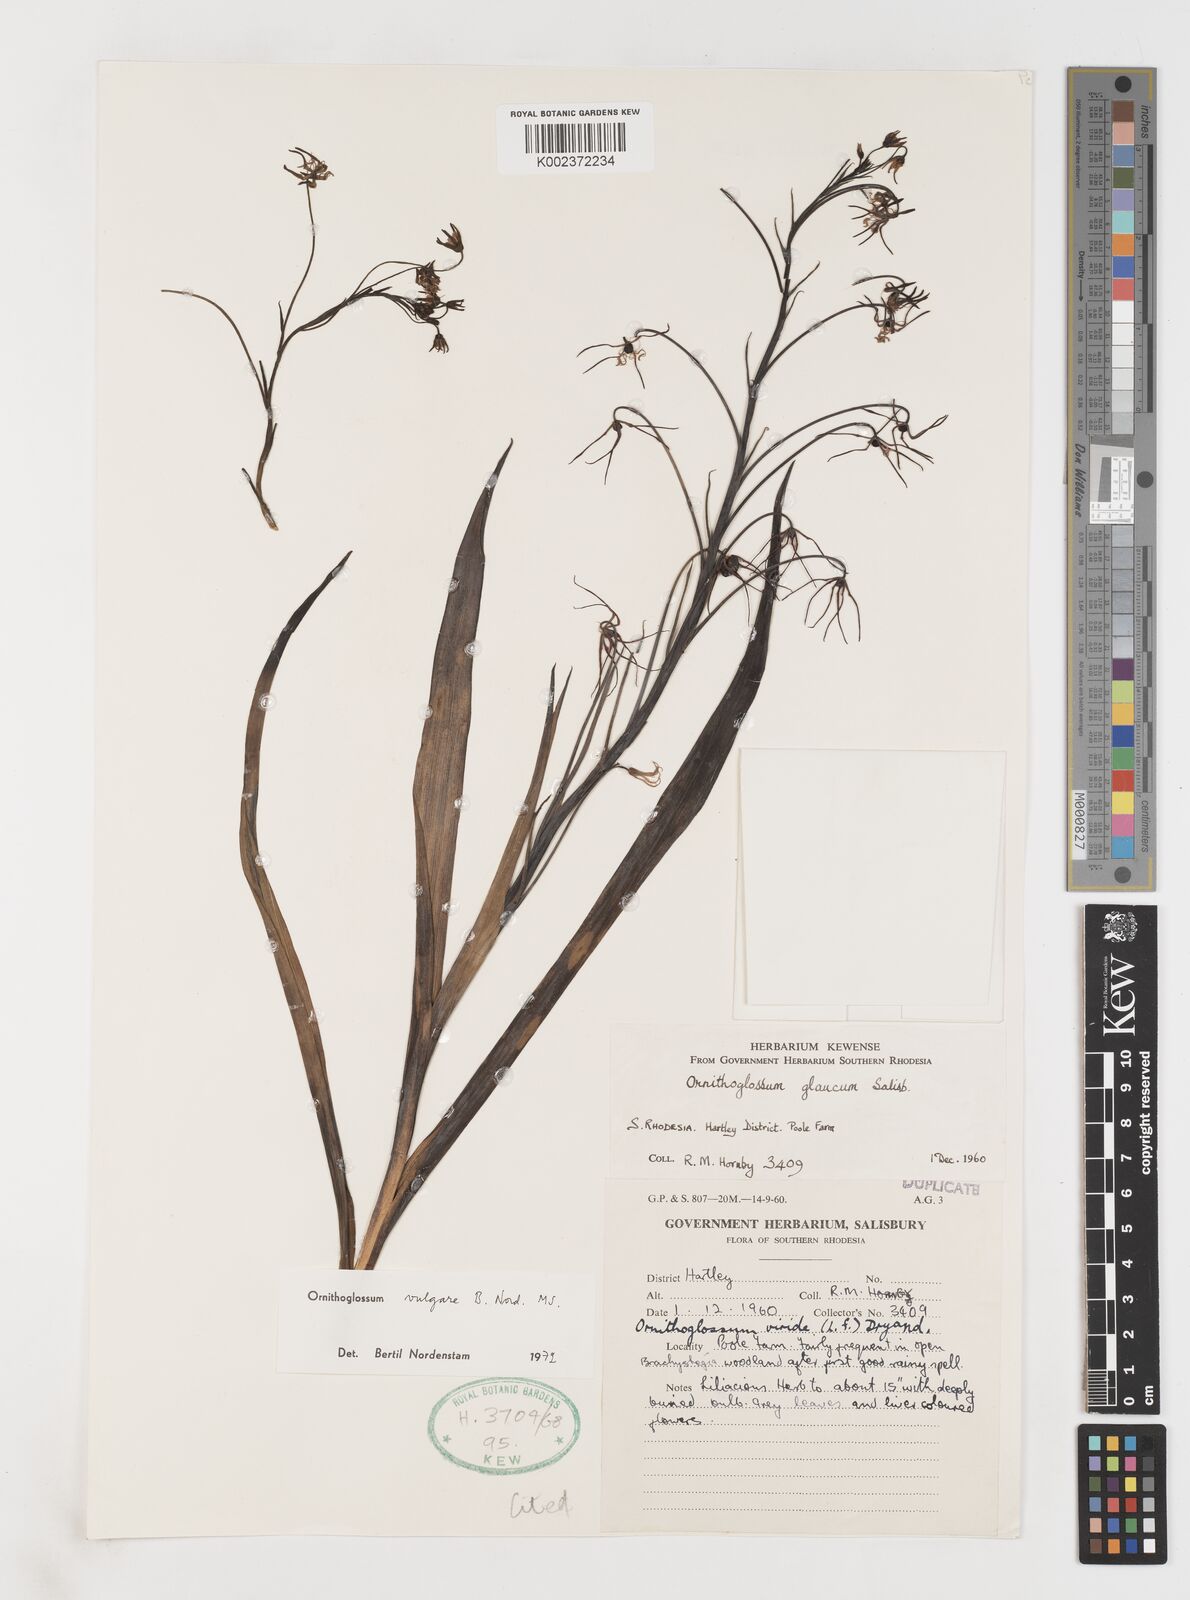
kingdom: Plantae
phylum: Tracheophyta
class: Liliopsida
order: Liliales
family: Colchicaceae
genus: Ornithoglossum
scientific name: Ornithoglossum vulgare
